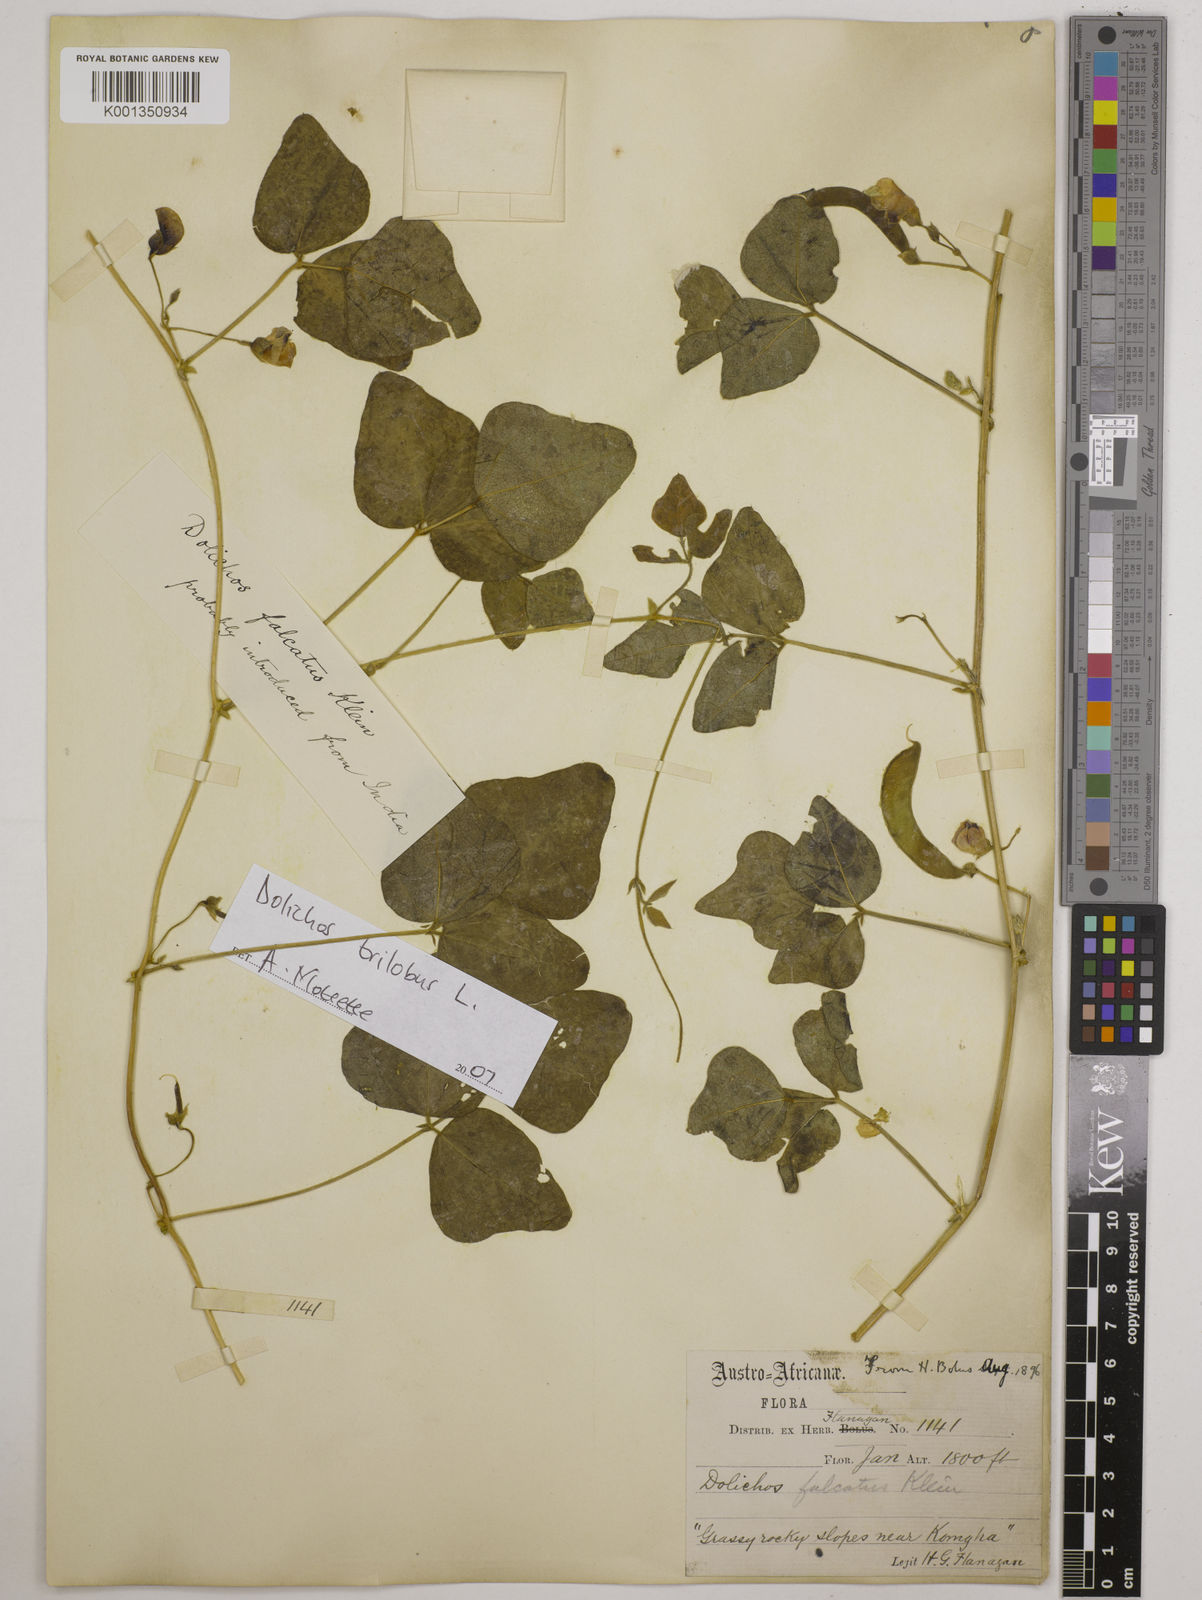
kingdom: Plantae
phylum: Tracheophyta
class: Magnoliopsida
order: Fabales
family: Fabaceae
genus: Dolichos
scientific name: Dolichos
